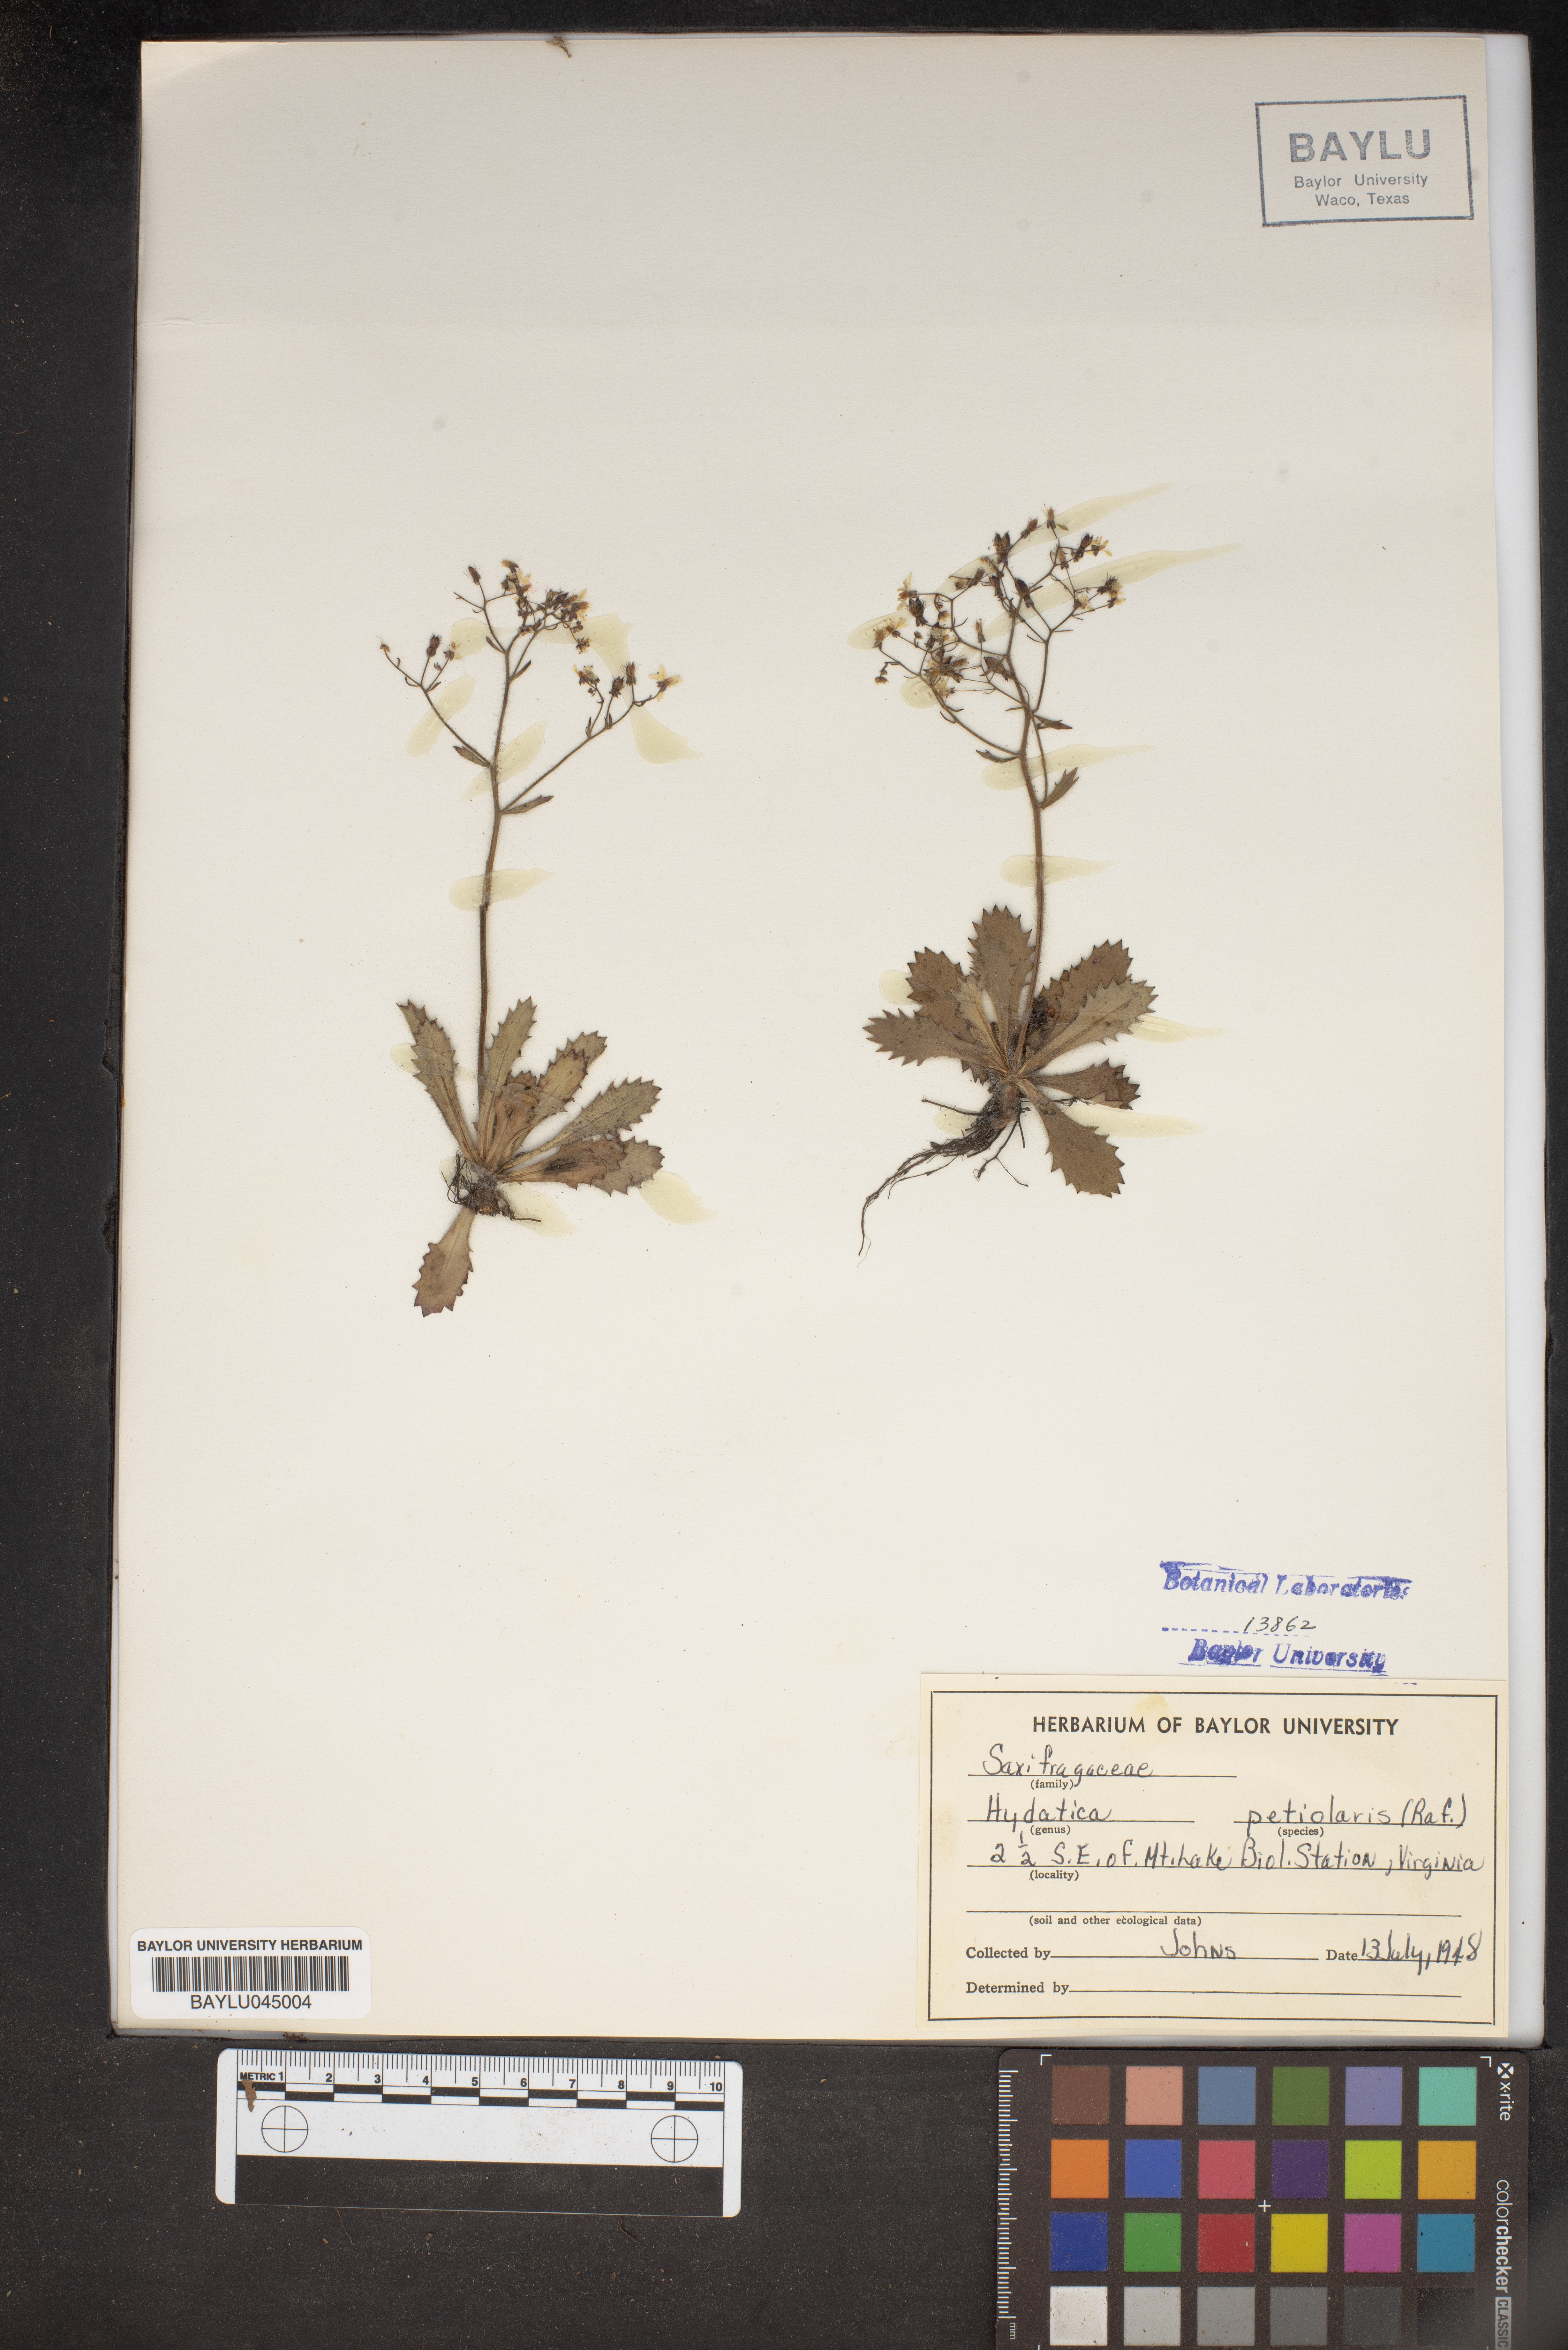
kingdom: Plantae
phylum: Tracheophyta
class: Magnoliopsida
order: Saxifragales
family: Saxifragaceae
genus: Micranthes
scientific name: Micranthes petiolaris
